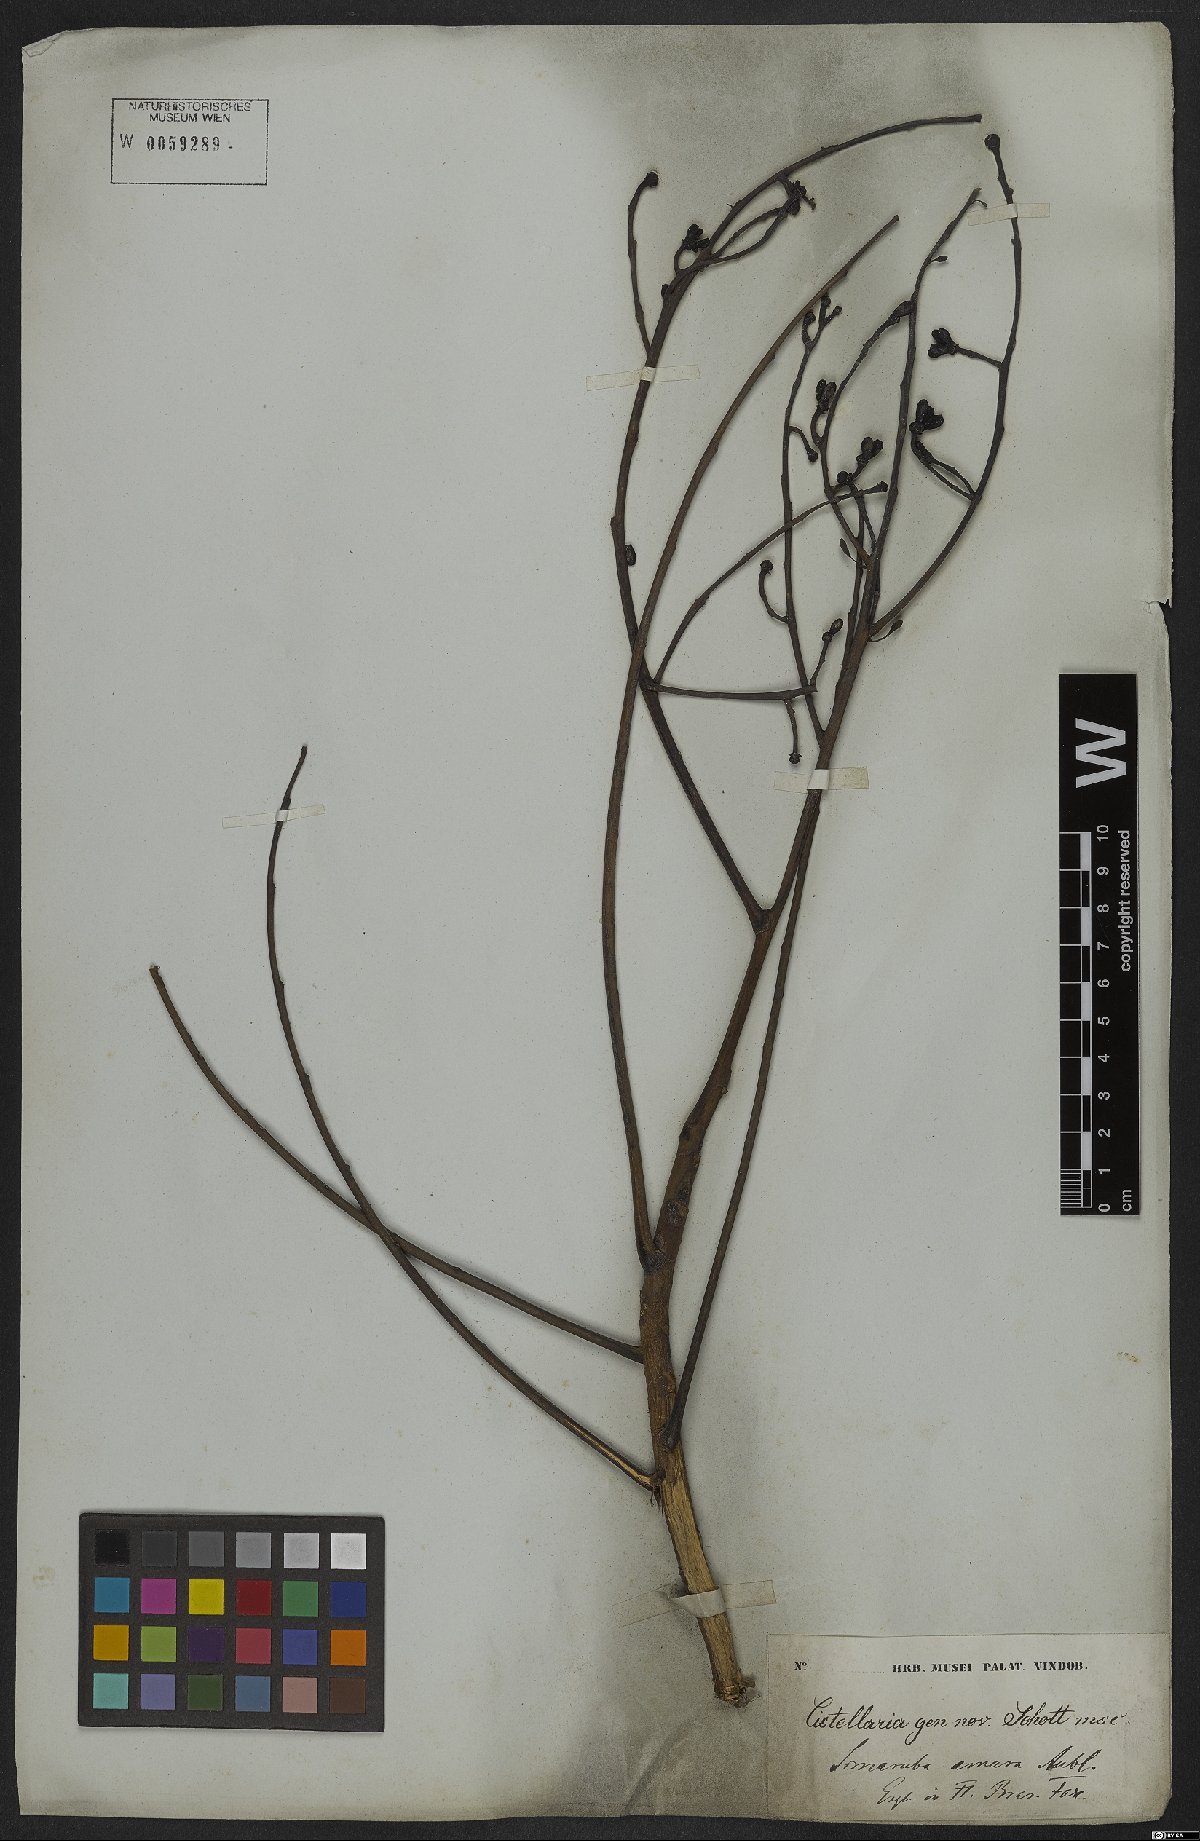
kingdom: Plantae
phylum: Tracheophyta
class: Magnoliopsida
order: Sapindales
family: Simaroubaceae
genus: Simarouba
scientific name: Simarouba amara
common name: Bitterwood
